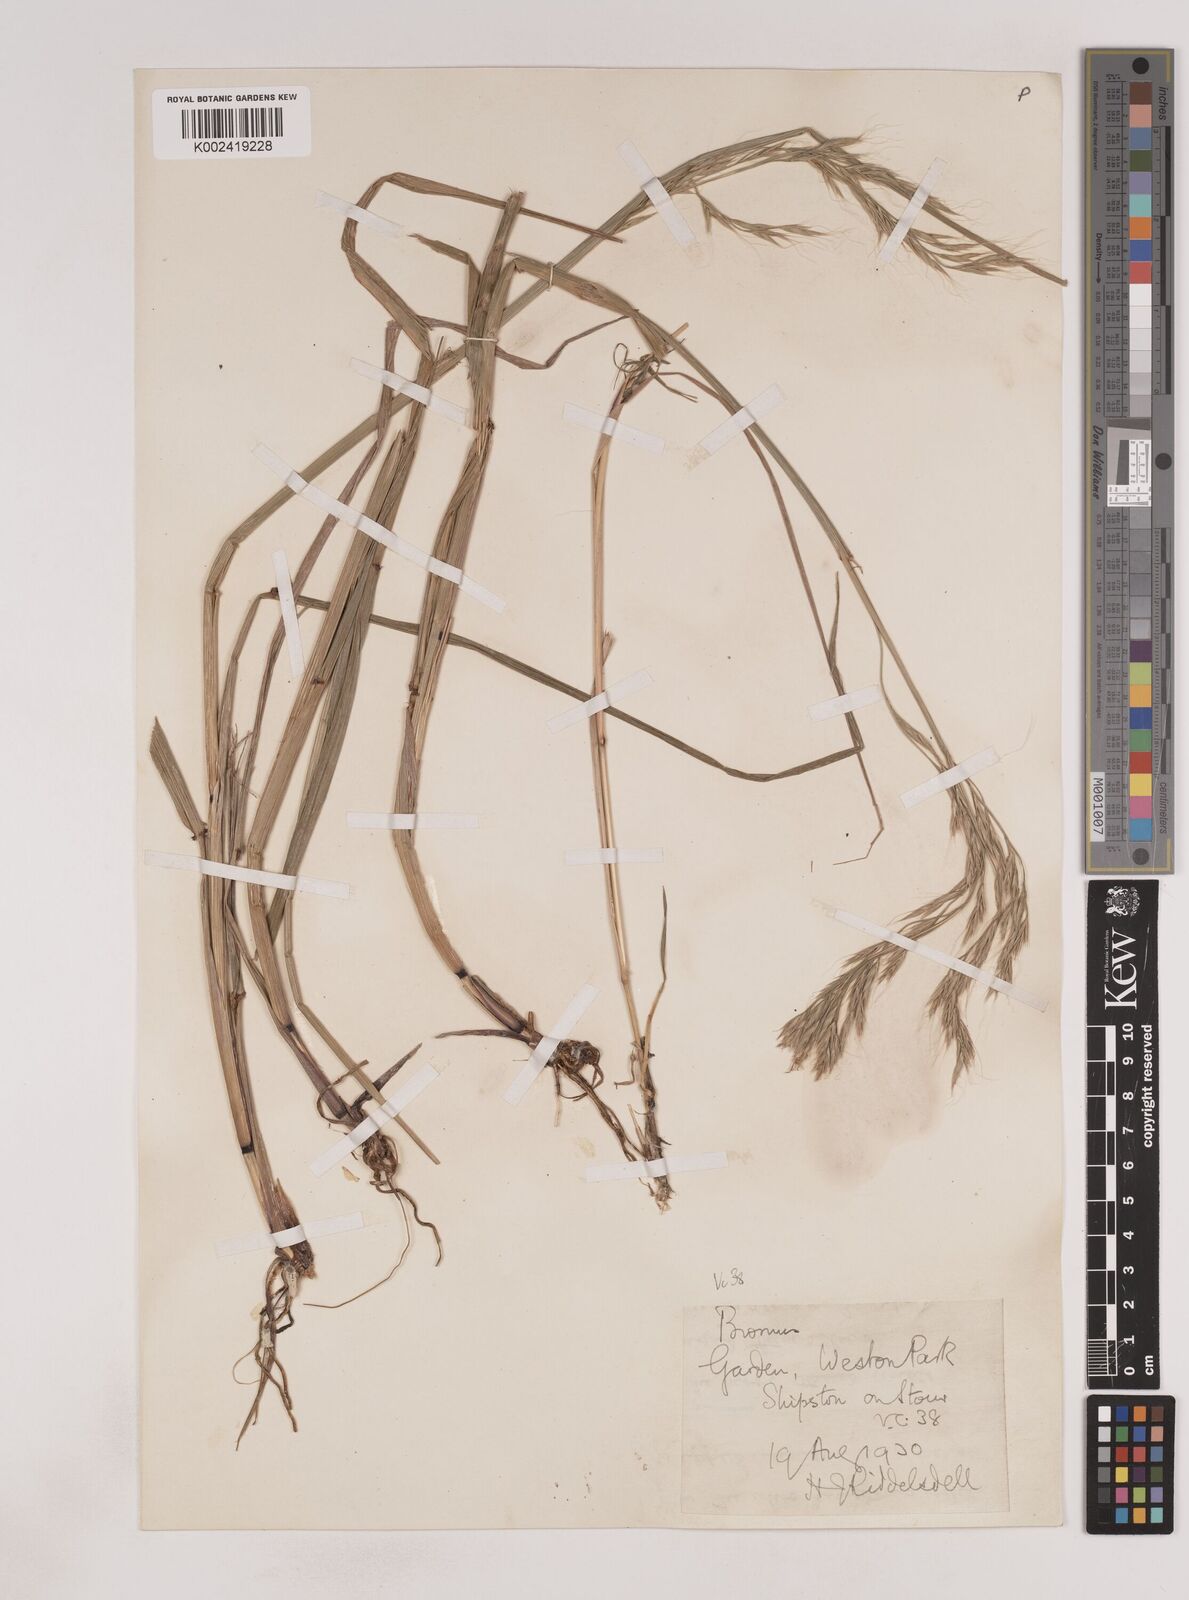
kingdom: Plantae
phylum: Tracheophyta
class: Liliopsida
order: Poales
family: Poaceae
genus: Lolium
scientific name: Lolium giganteum
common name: Giant fescue
